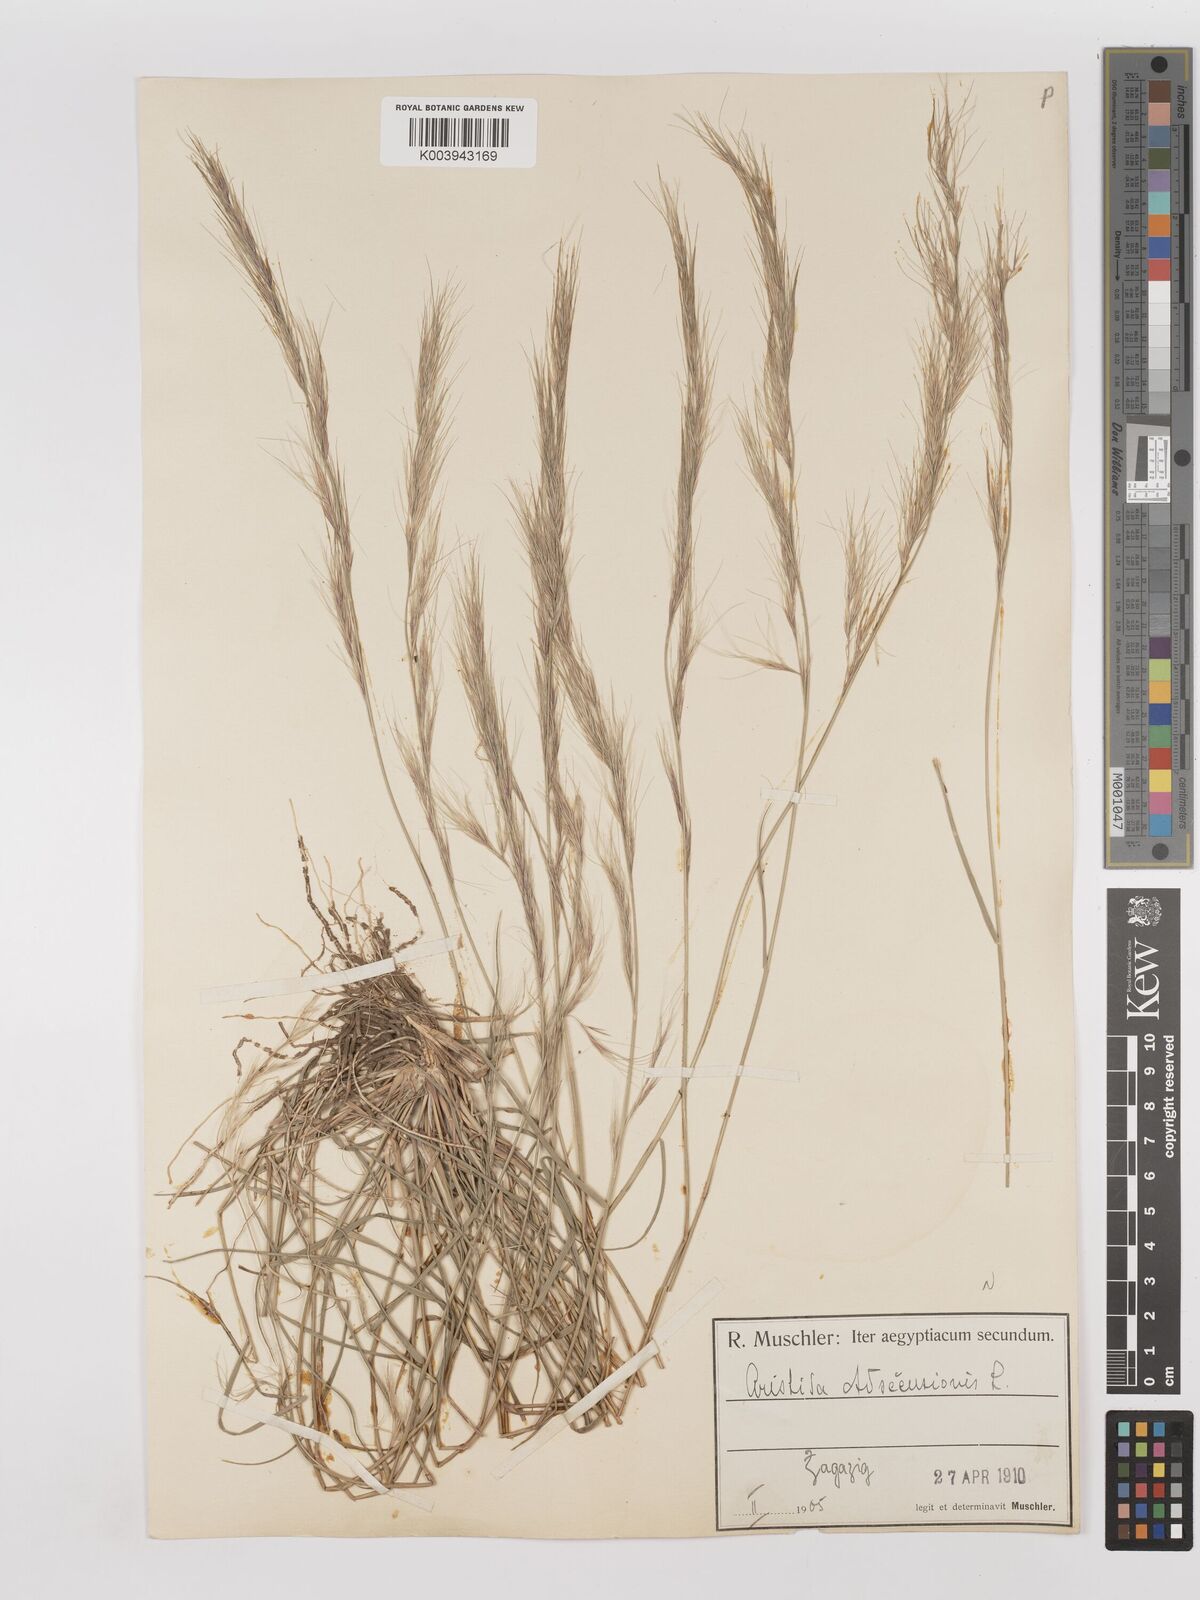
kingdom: Plantae
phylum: Tracheophyta
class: Liliopsida
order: Poales
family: Poaceae
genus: Aristida
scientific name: Aristida adscensionis
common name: Sixweeks threeawn
